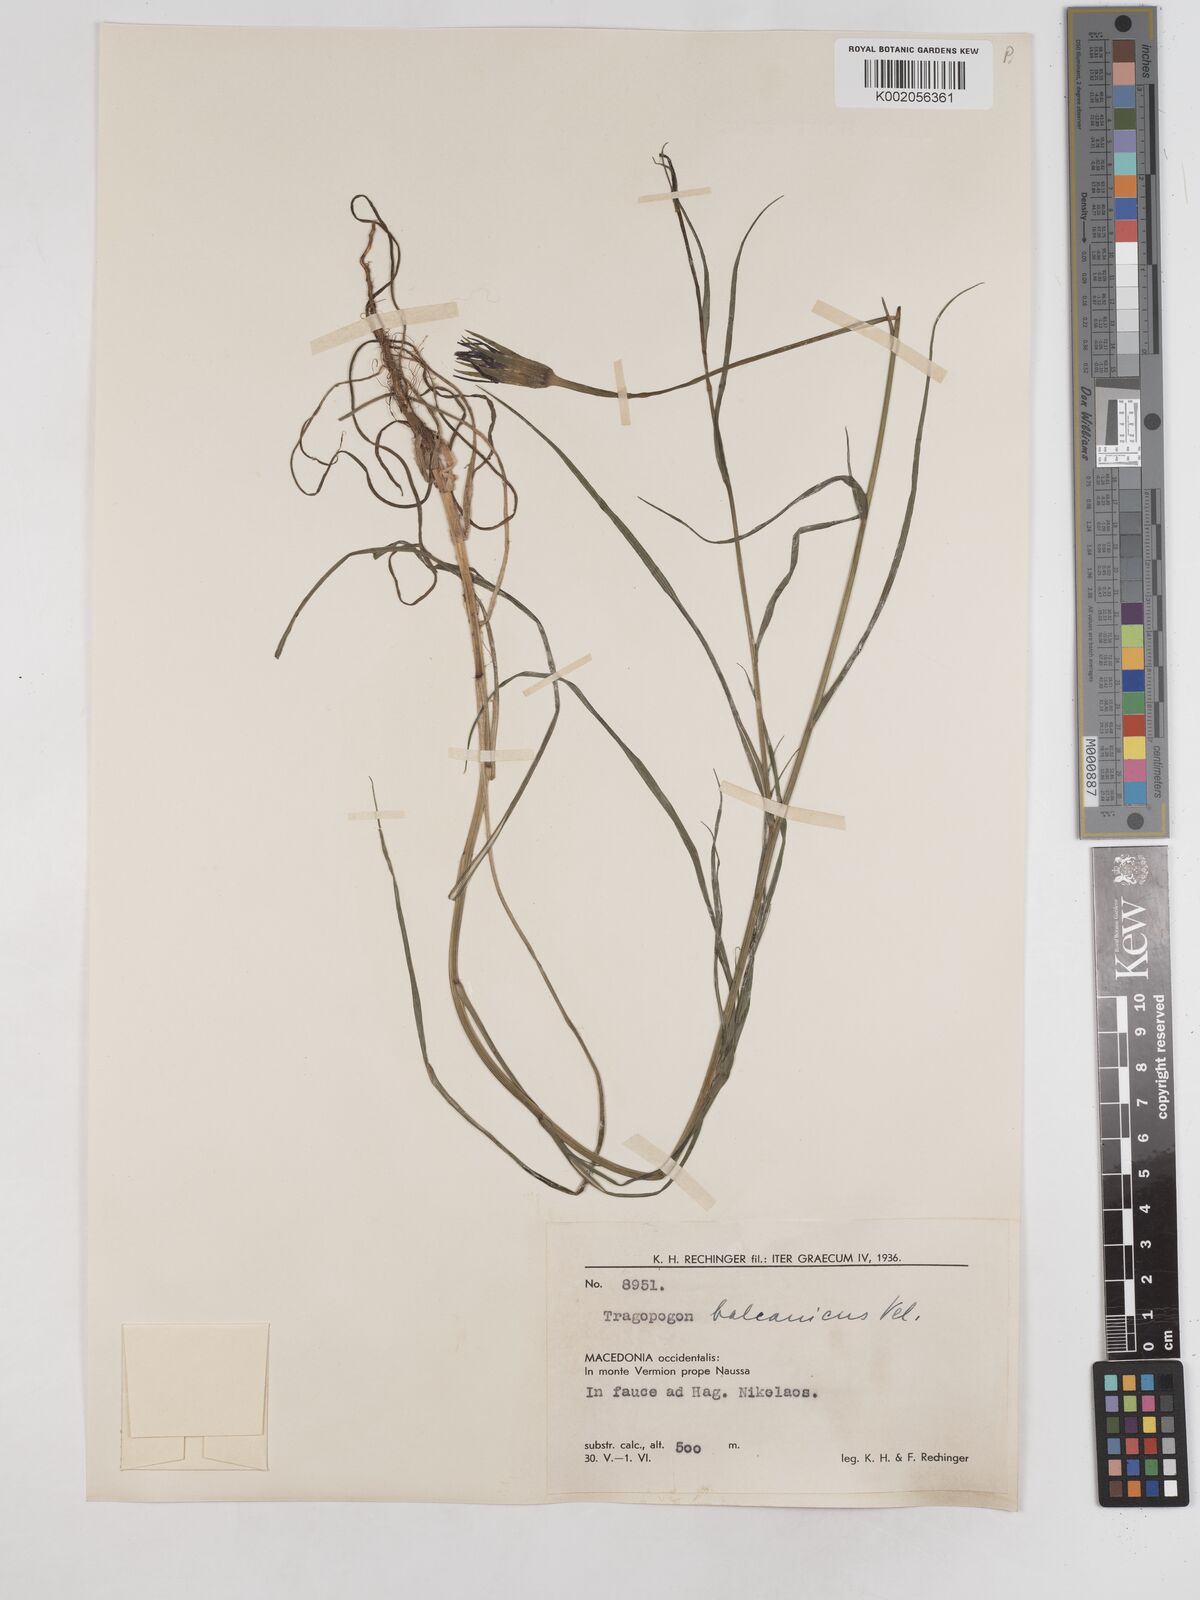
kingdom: Plantae
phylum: Tracheophyta
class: Magnoliopsida
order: Asterales
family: Asteraceae
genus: Tragopogon
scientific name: Tragopogon balcanicus
